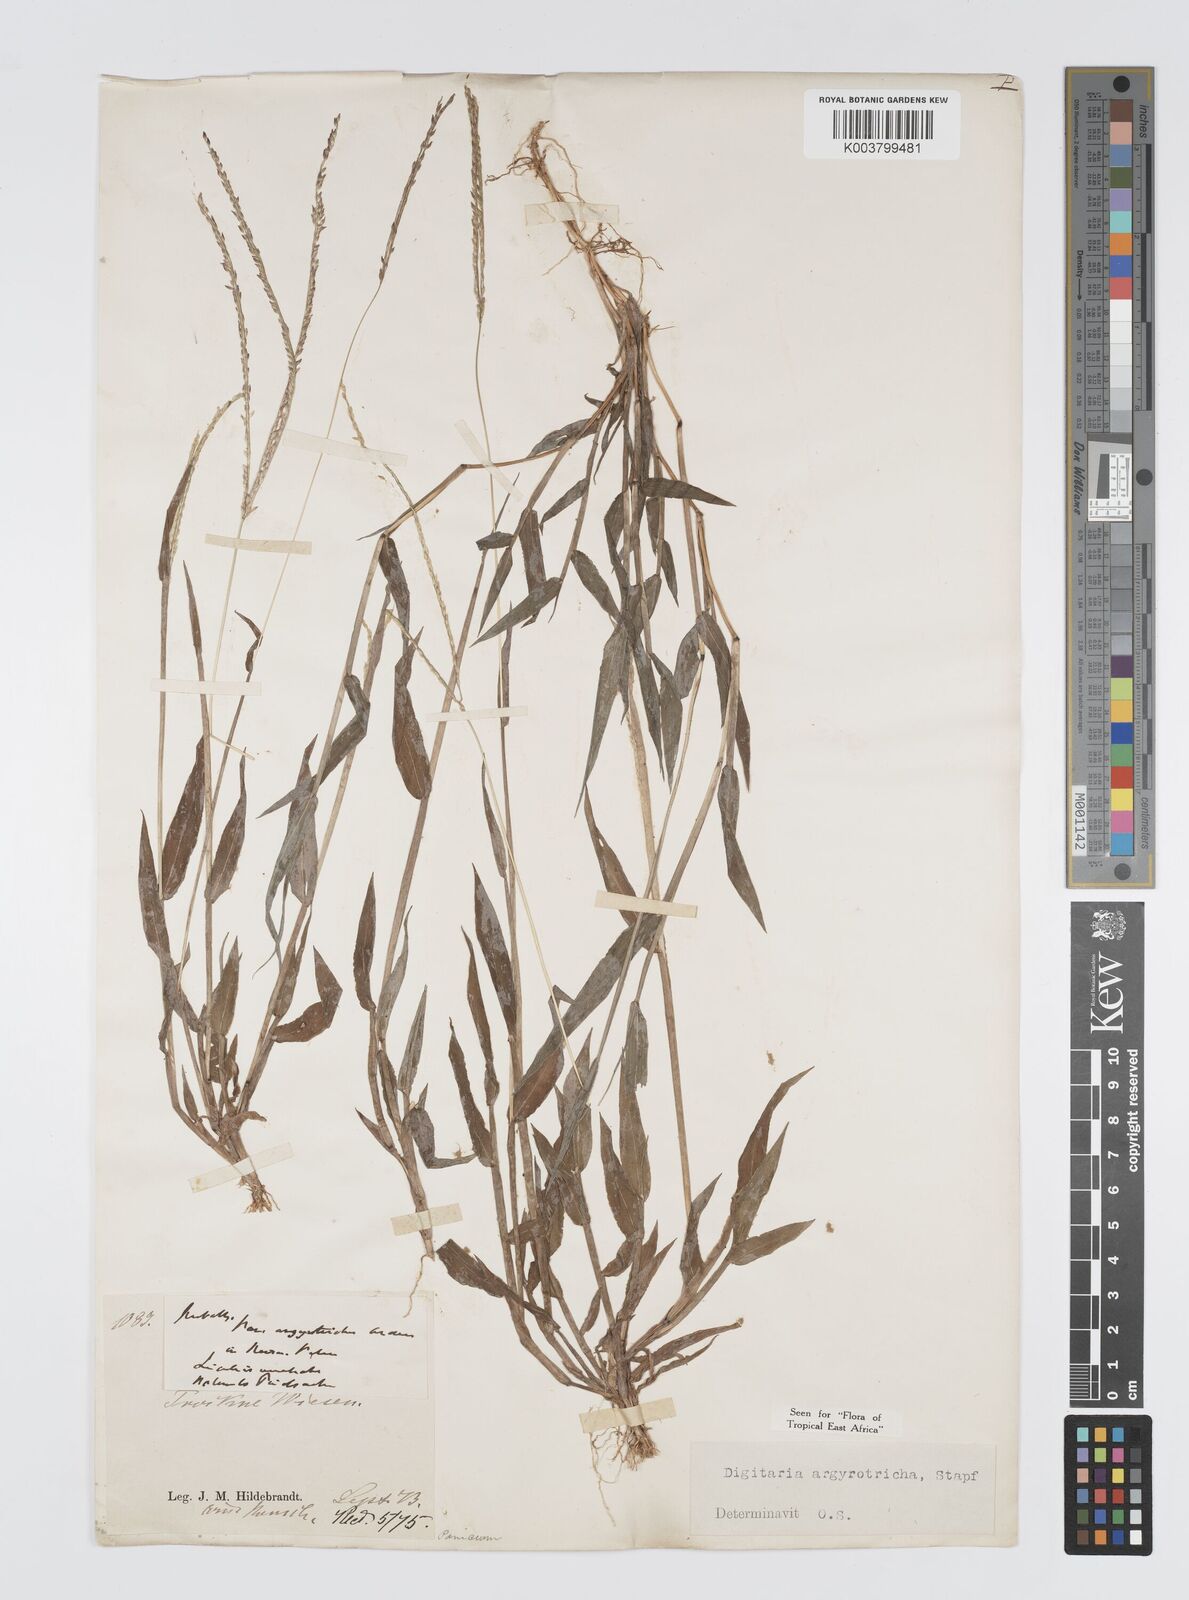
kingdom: Plantae
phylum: Tracheophyta
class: Liliopsida
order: Poales
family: Poaceae
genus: Digitaria
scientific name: Digitaria argyrotricha
